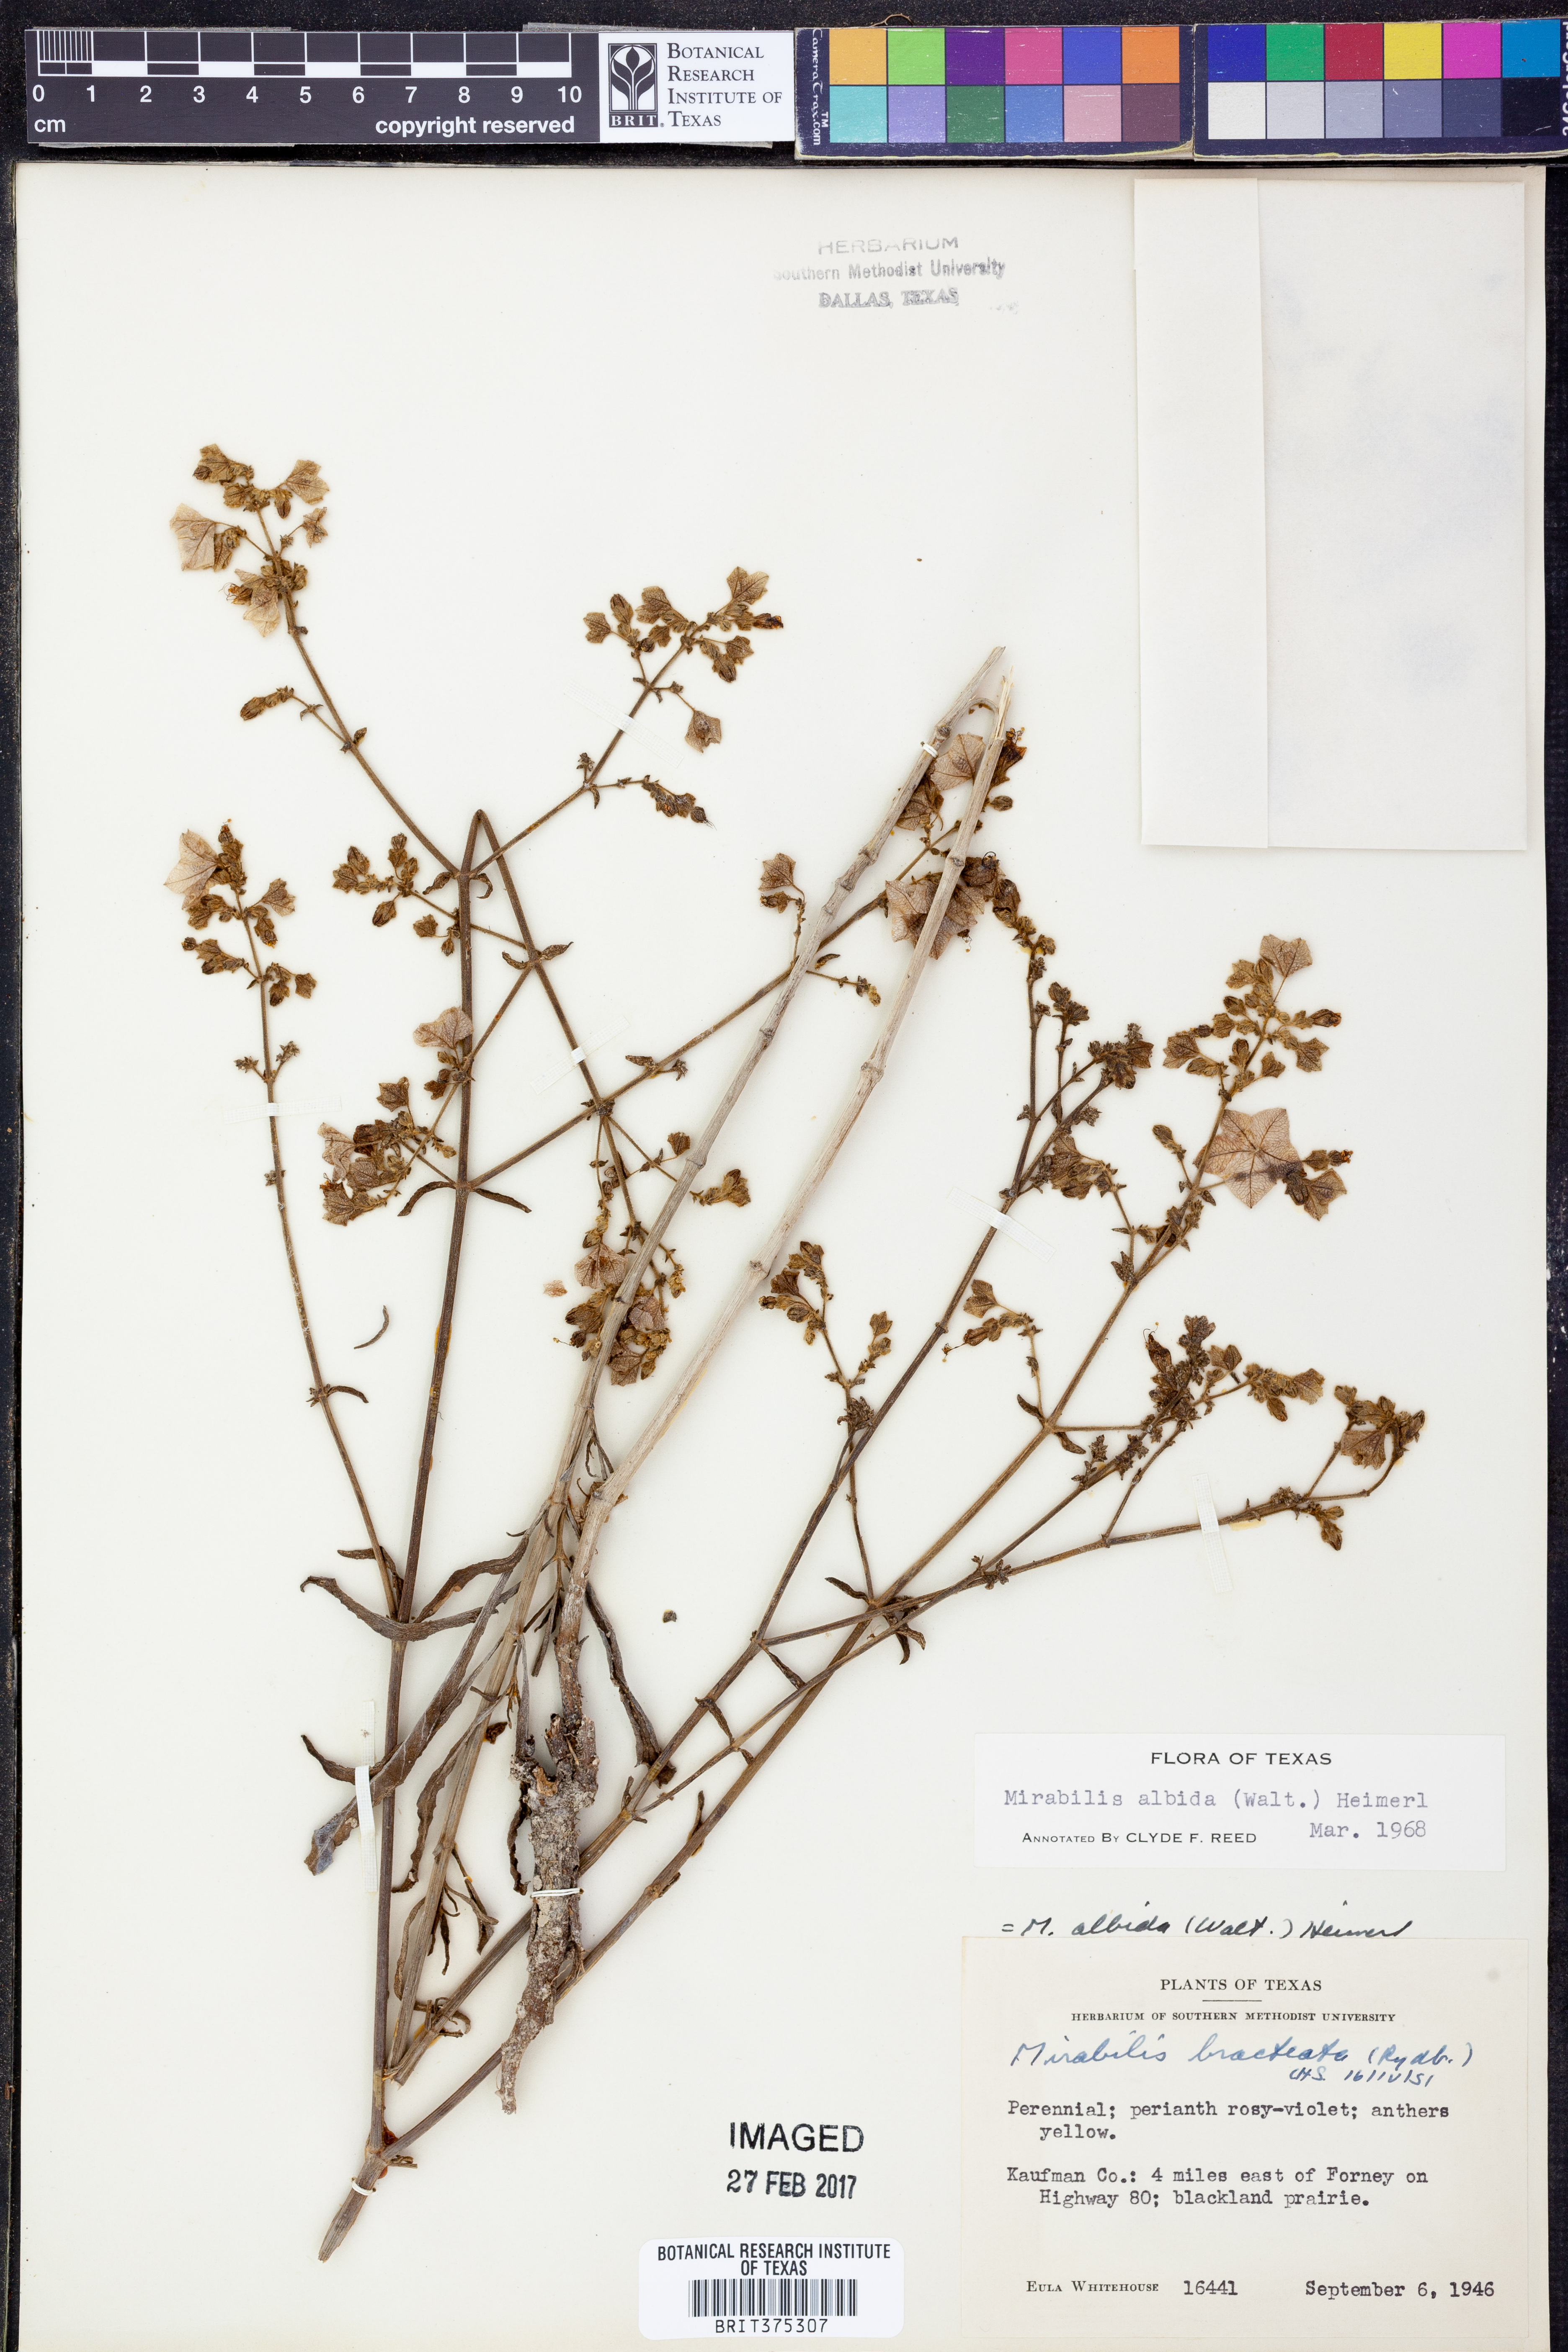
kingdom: Plantae
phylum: Tracheophyta
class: Magnoliopsida
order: Caryophyllales
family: Nyctaginaceae
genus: Mirabilis
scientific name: Mirabilis albida
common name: Hairy four-o'clock
